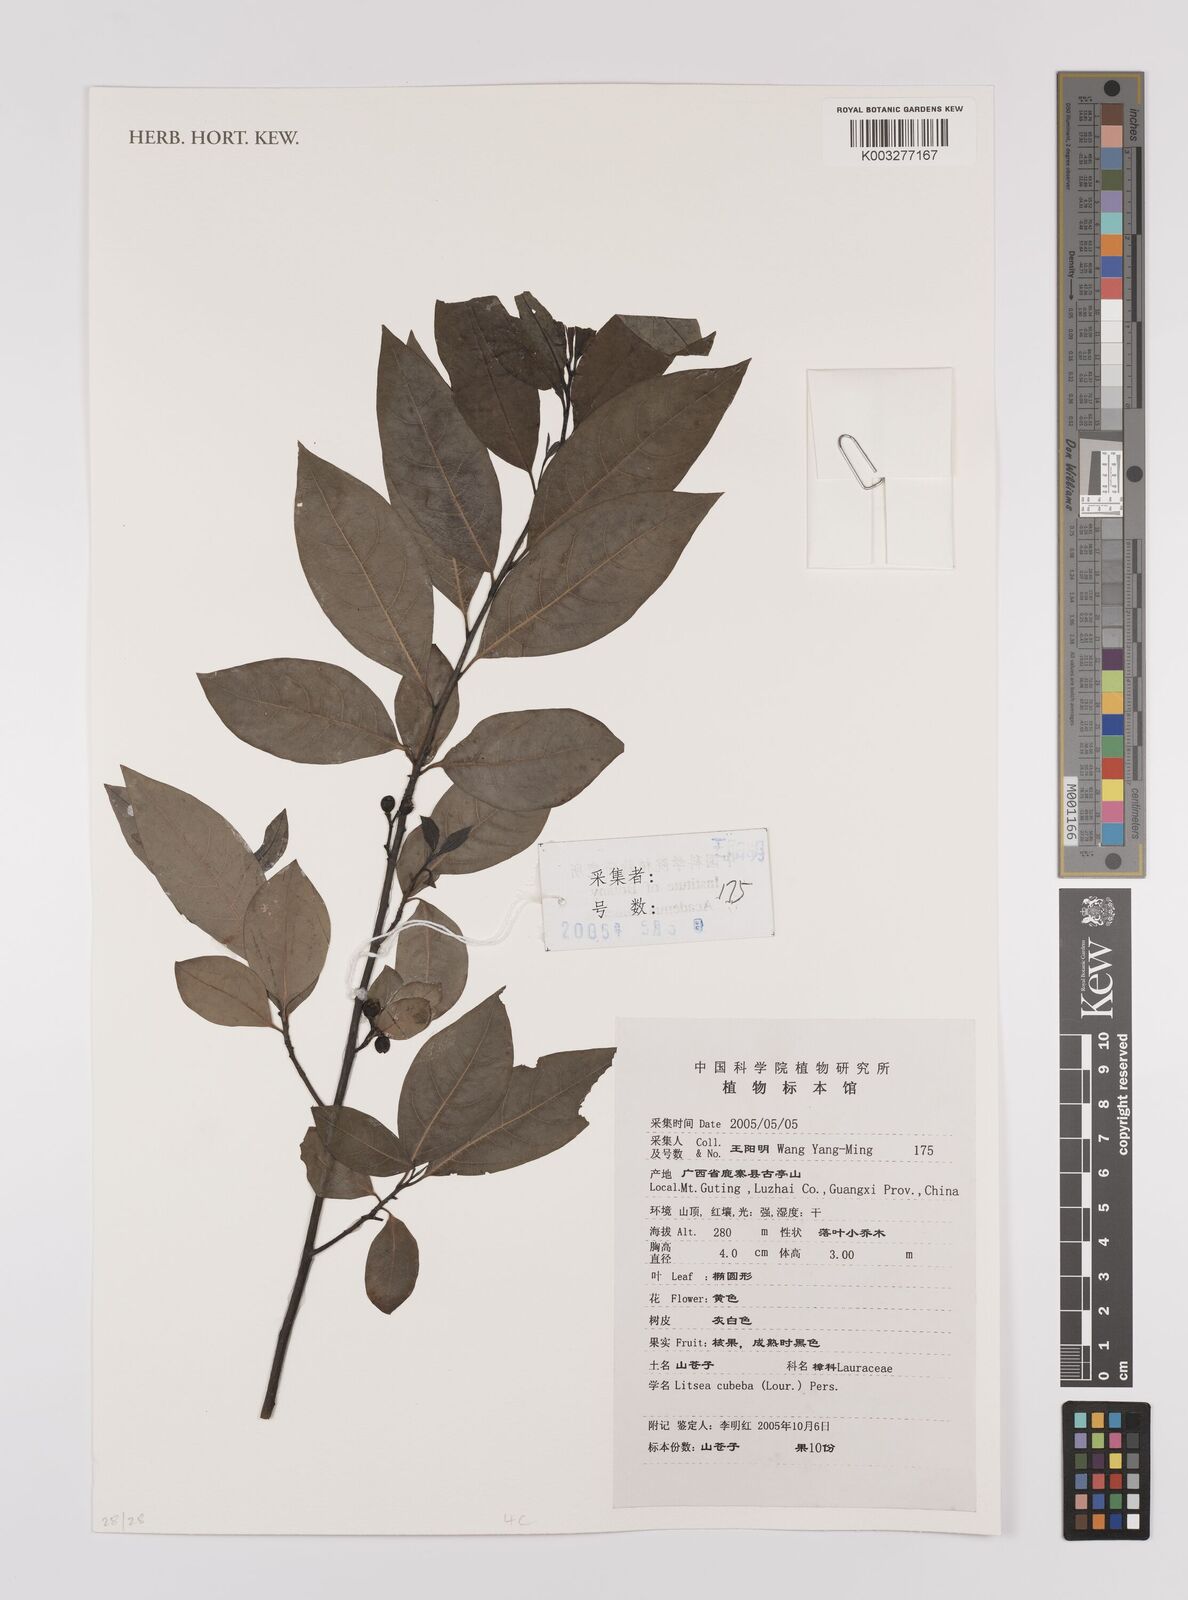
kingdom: Plantae
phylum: Tracheophyta
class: Magnoliopsida
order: Laurales
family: Lauraceae
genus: Litsea
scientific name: Litsea cubeba
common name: Mountain-pepper
